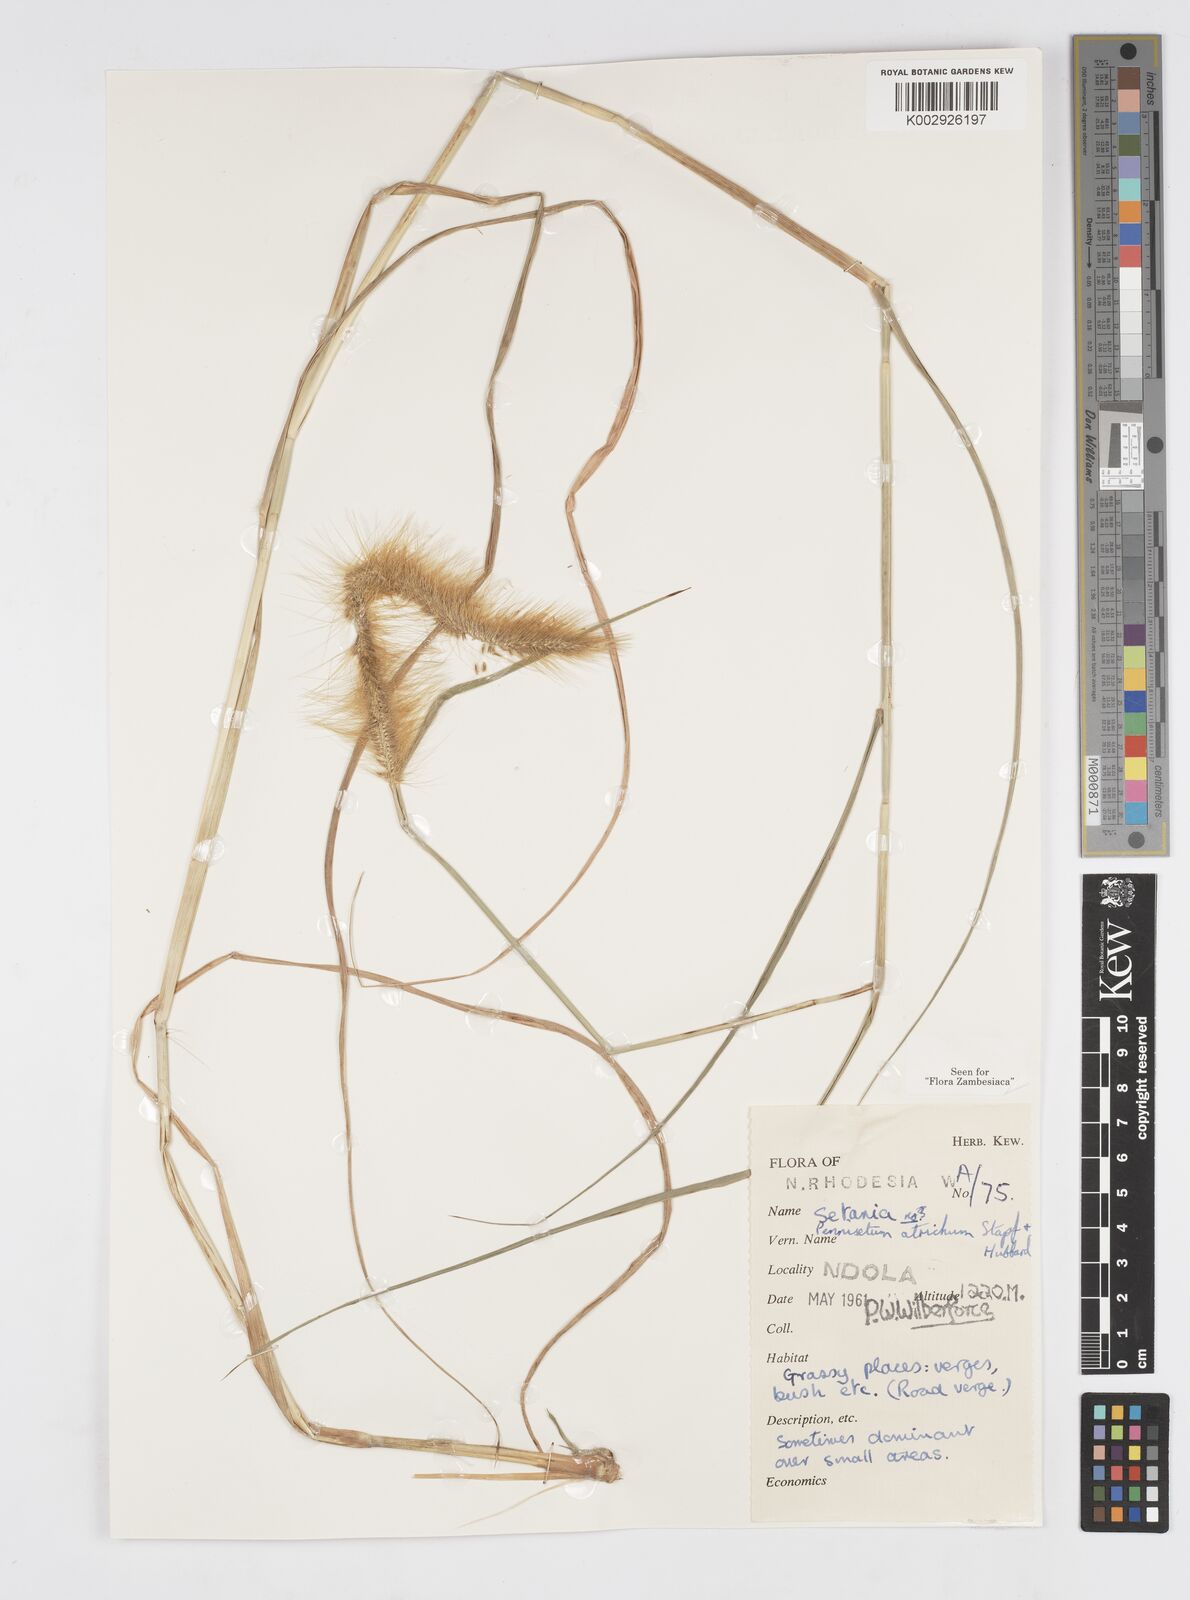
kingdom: Plantae
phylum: Tracheophyta
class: Liliopsida
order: Poales
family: Poaceae
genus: Cenchrus
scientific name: Cenchrus setosus
